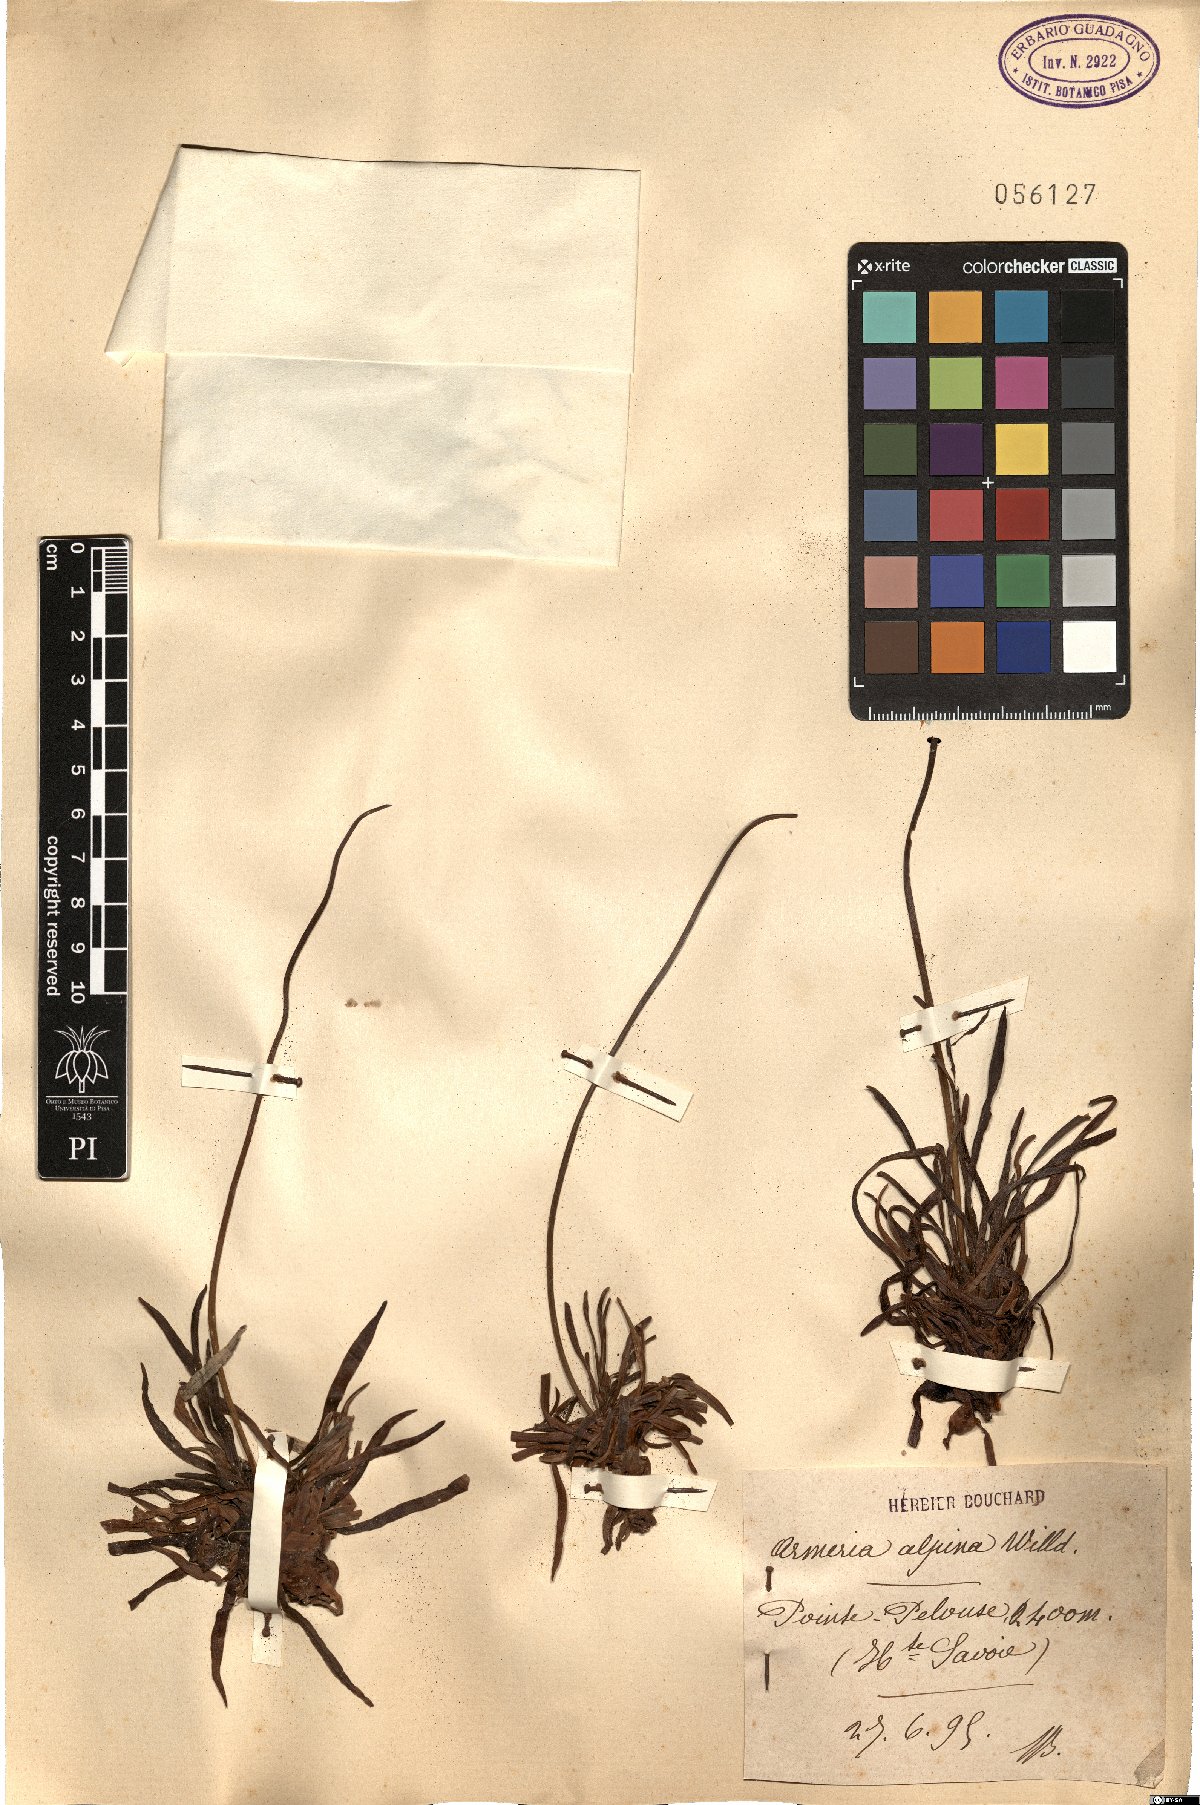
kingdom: Plantae
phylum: Tracheophyta
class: Magnoliopsida
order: Caryophyllales
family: Plumbaginaceae
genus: Armeria
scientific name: Armeria alpina
